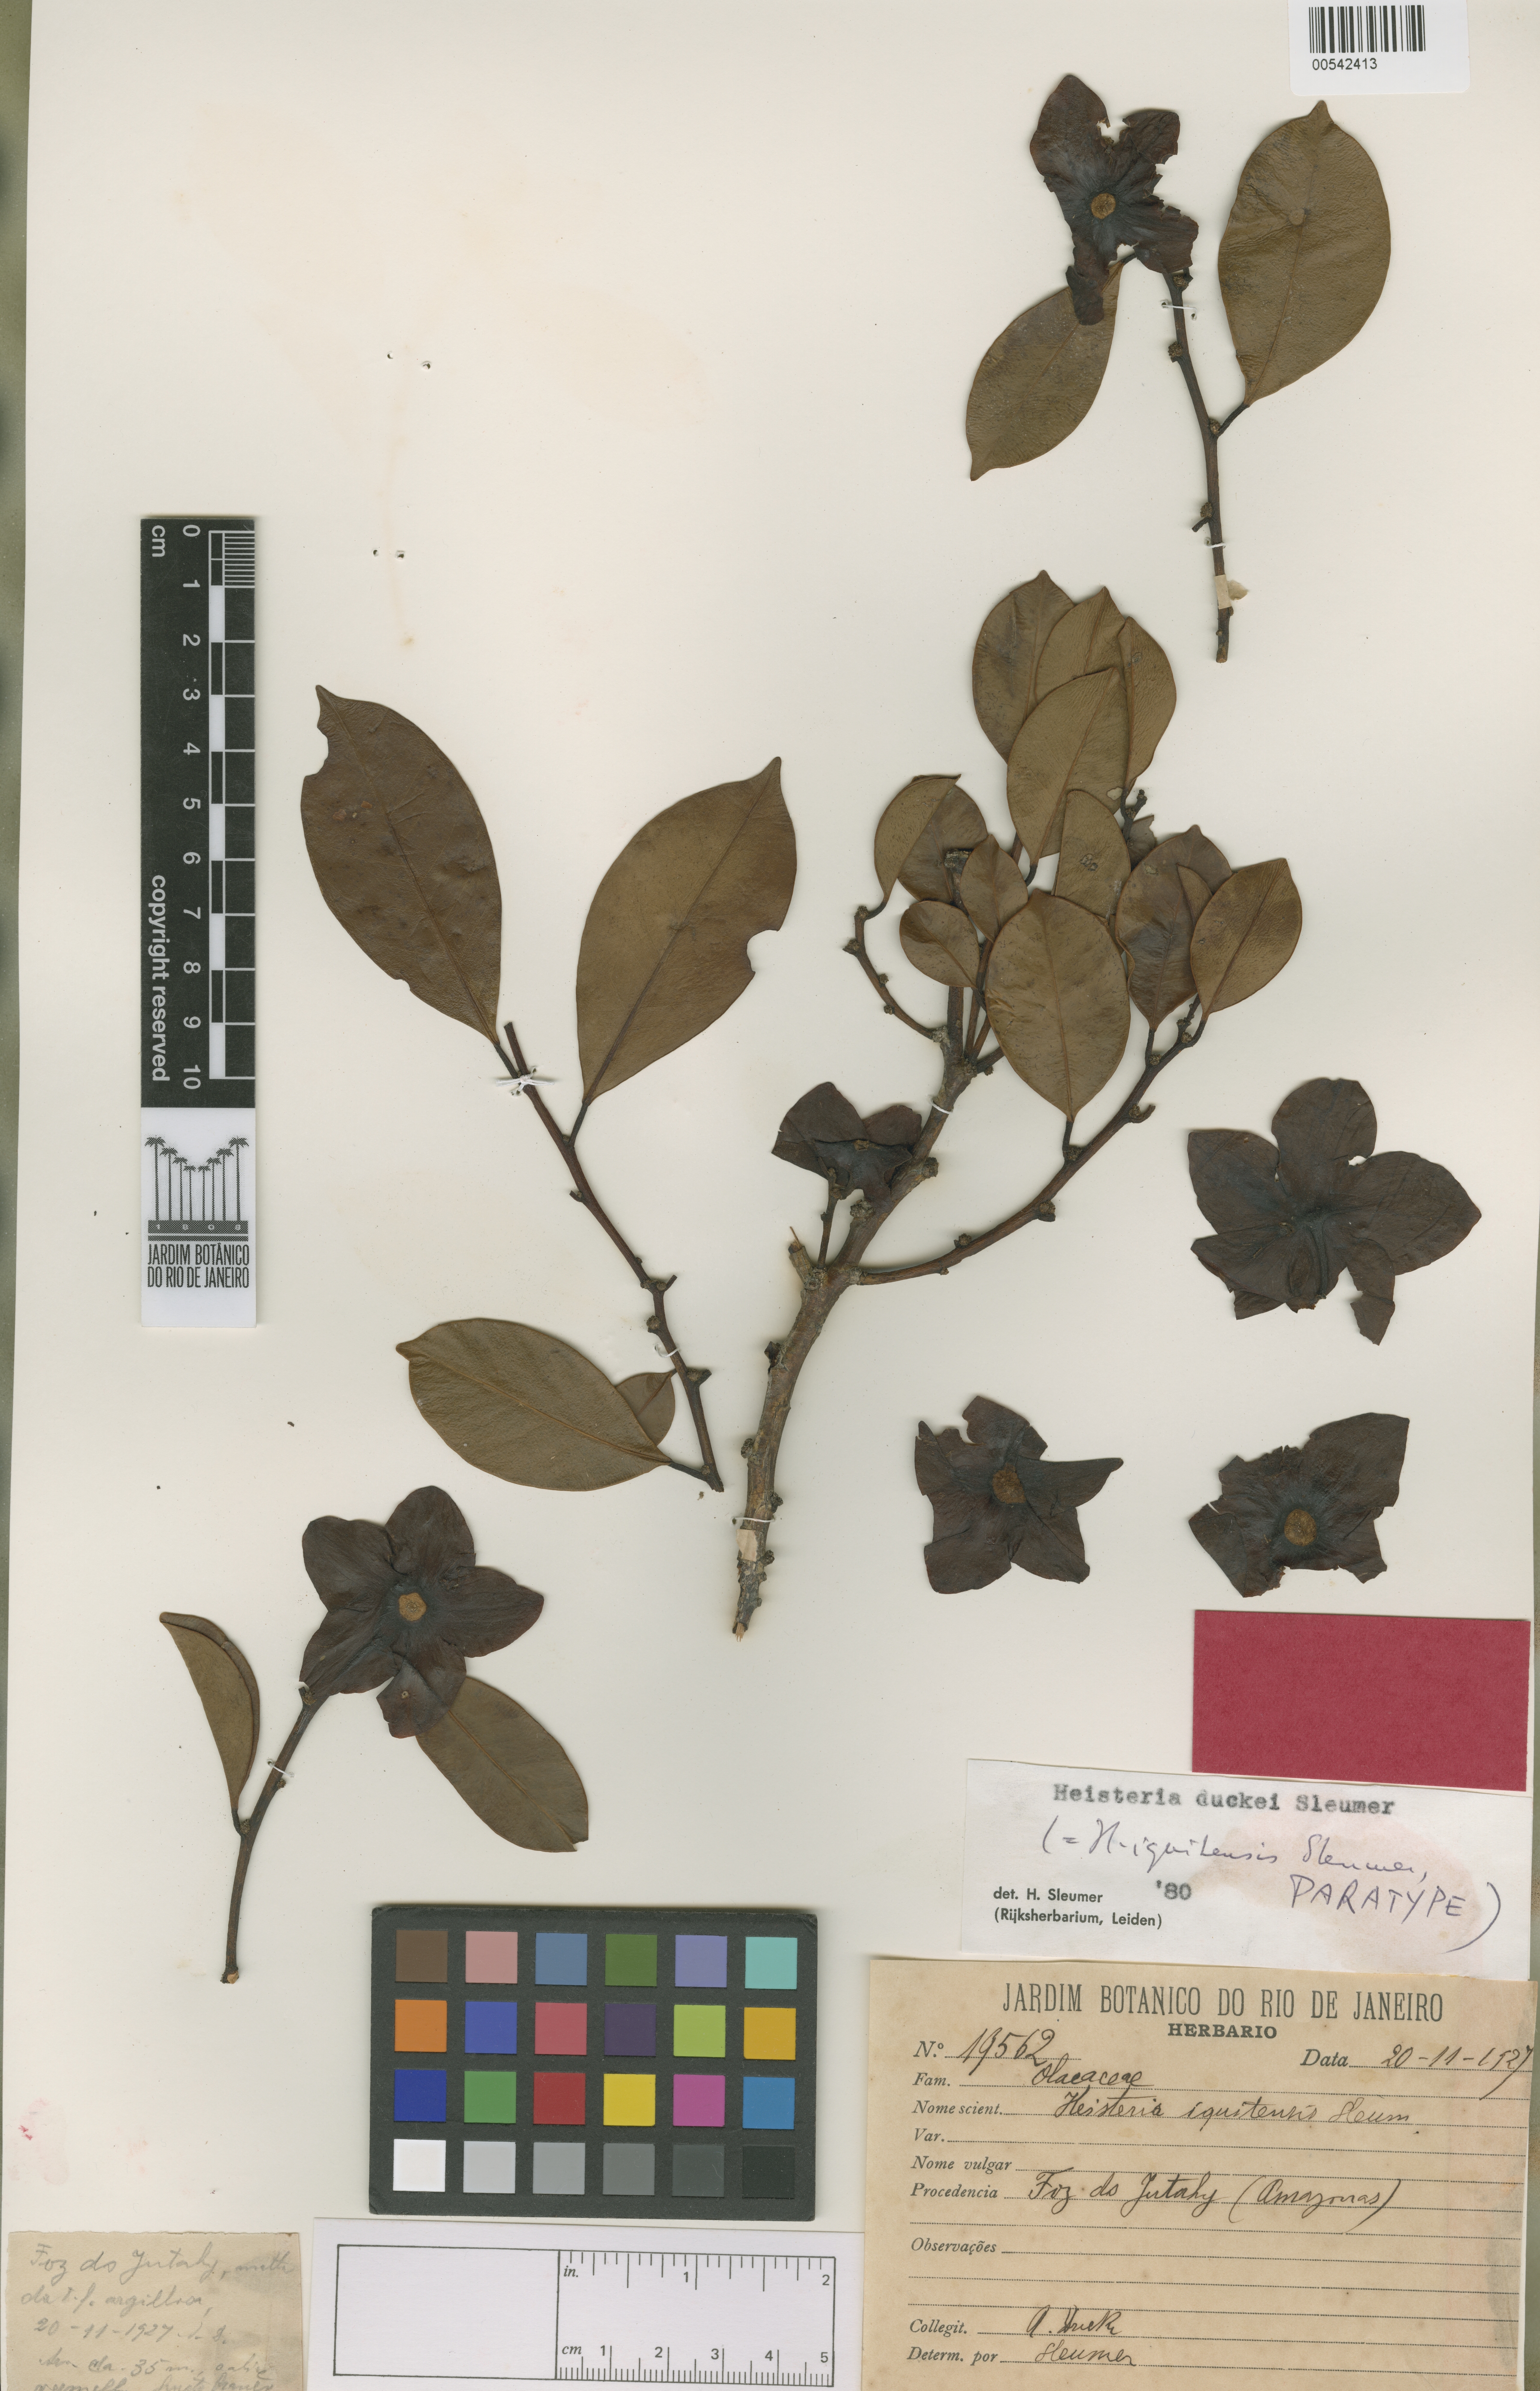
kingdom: Plantae
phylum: Tracheophyta
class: Magnoliopsida
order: Santalales
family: Erythropalaceae
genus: Heisteria
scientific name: Heisteria duckei
